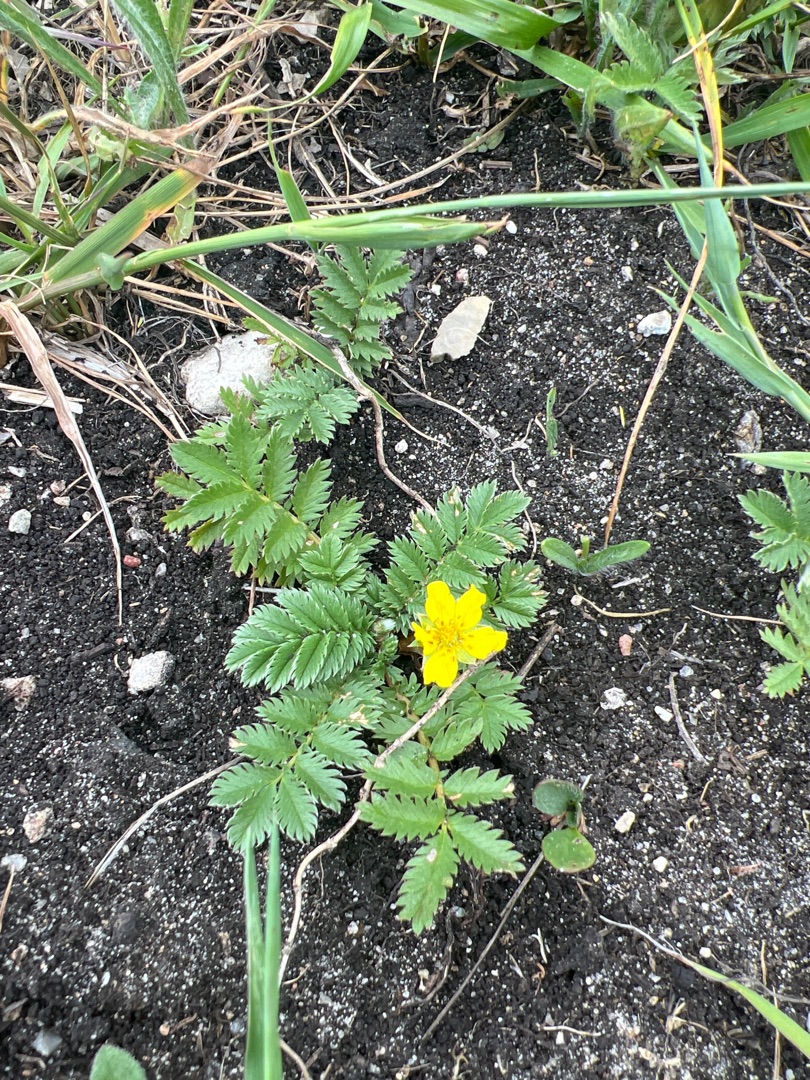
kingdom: Plantae
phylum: Tracheophyta
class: Magnoliopsida
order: Rosales
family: Rosaceae
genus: Argentina
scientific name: Argentina anserina
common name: Gåsepotentil
